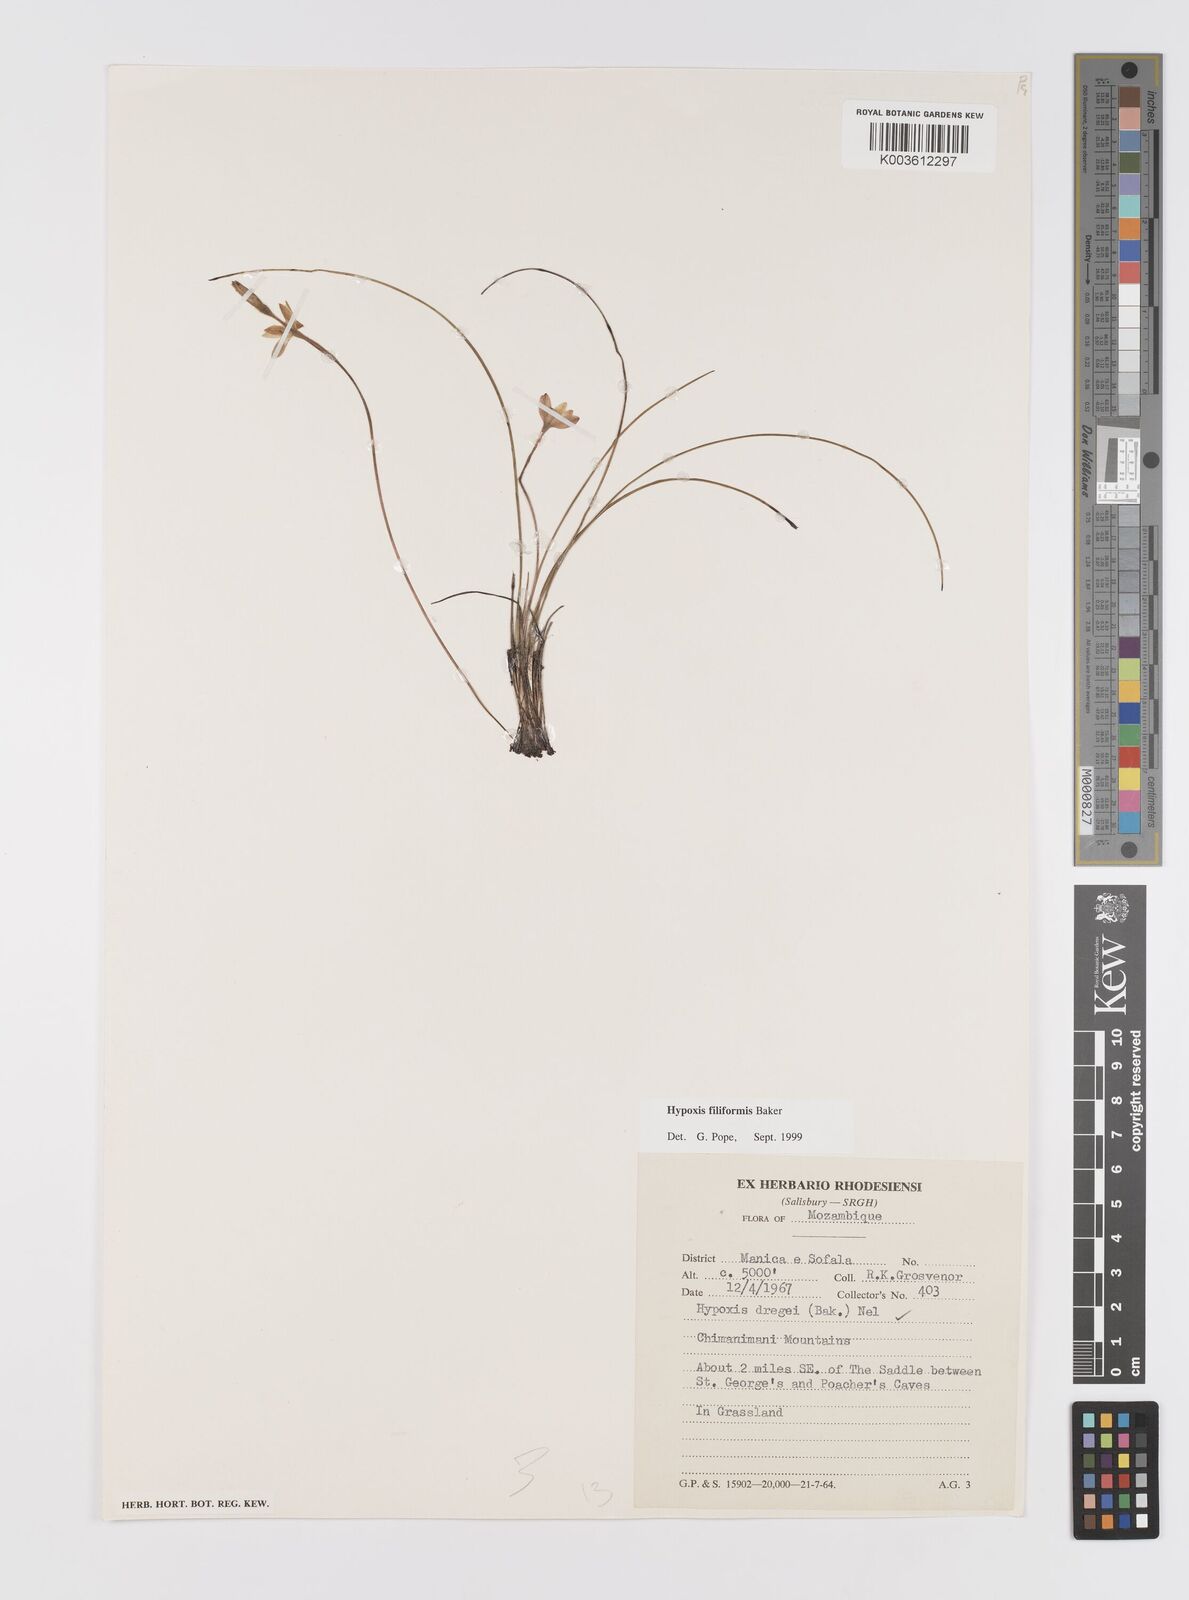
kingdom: Plantae
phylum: Tracheophyta
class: Liliopsida
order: Asparagales
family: Hypoxidaceae
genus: Hypoxis
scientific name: Hypoxis filiformis
